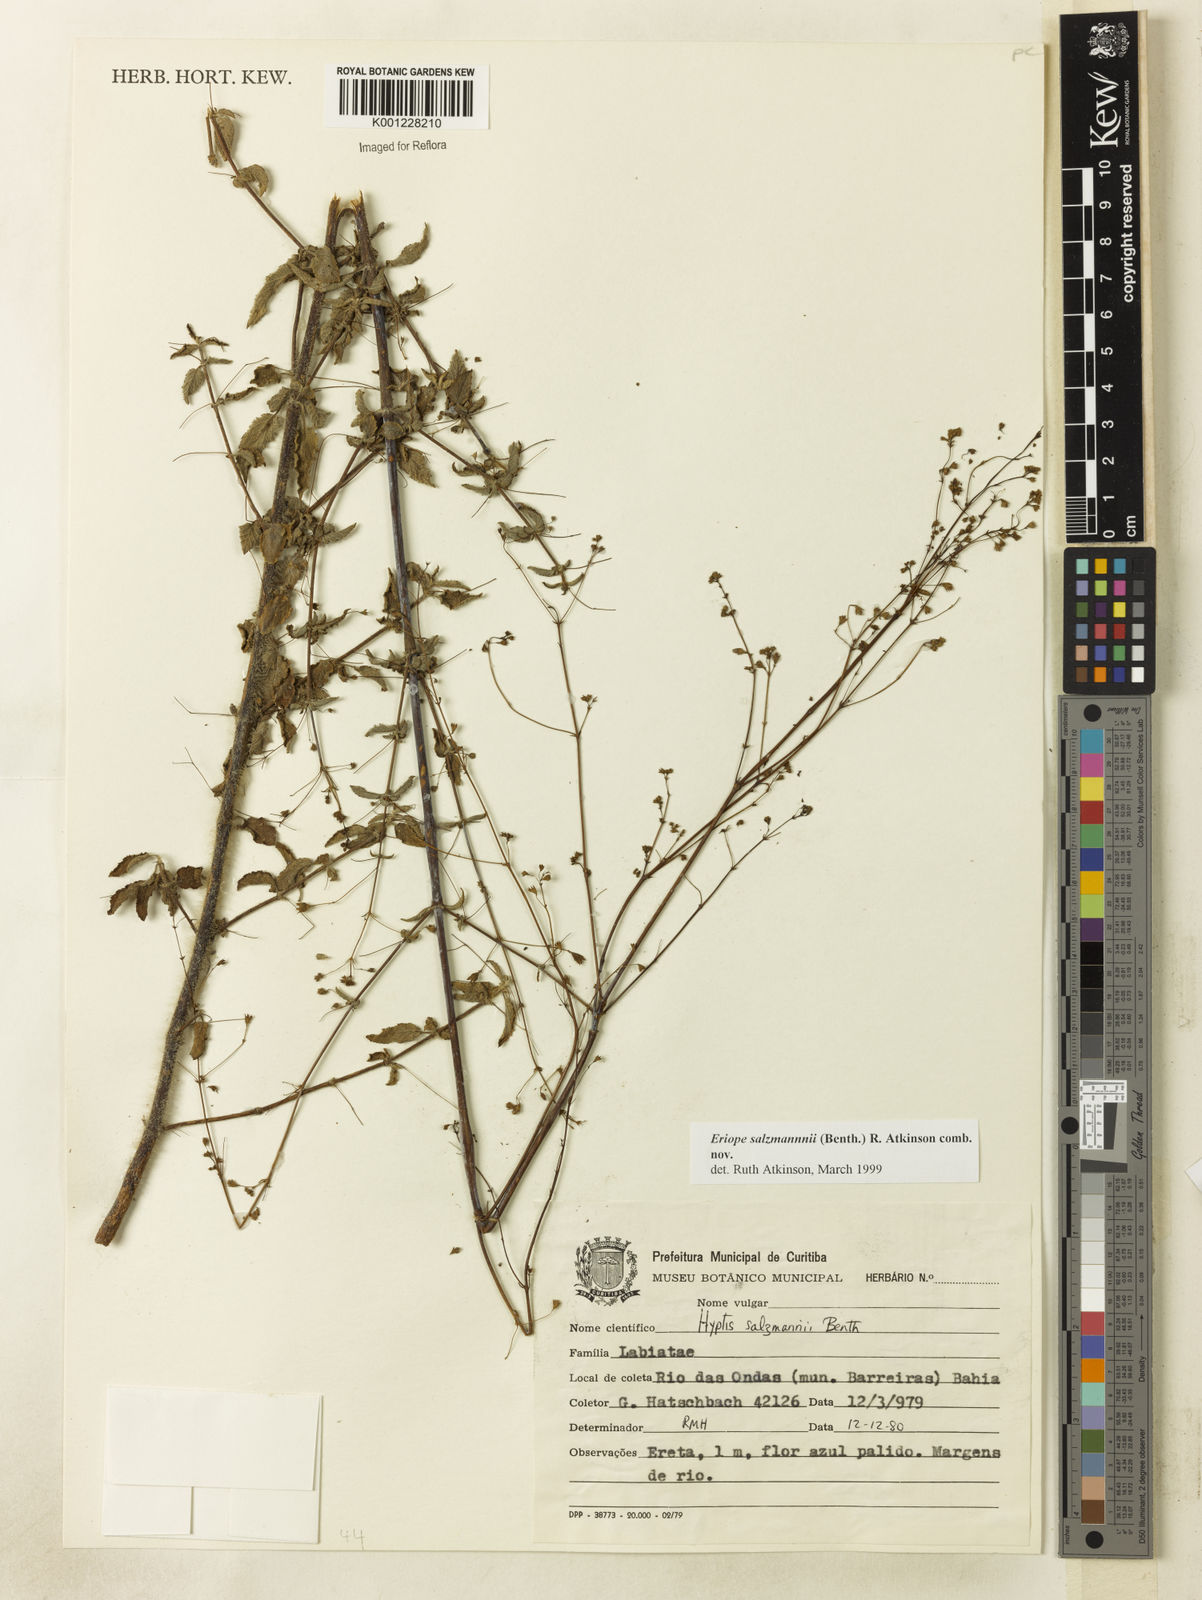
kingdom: Plantae
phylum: Tracheophyta
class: Magnoliopsida
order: Lamiales
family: Lamiaceae
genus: Hypenia
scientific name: Hypenia salzmannii
